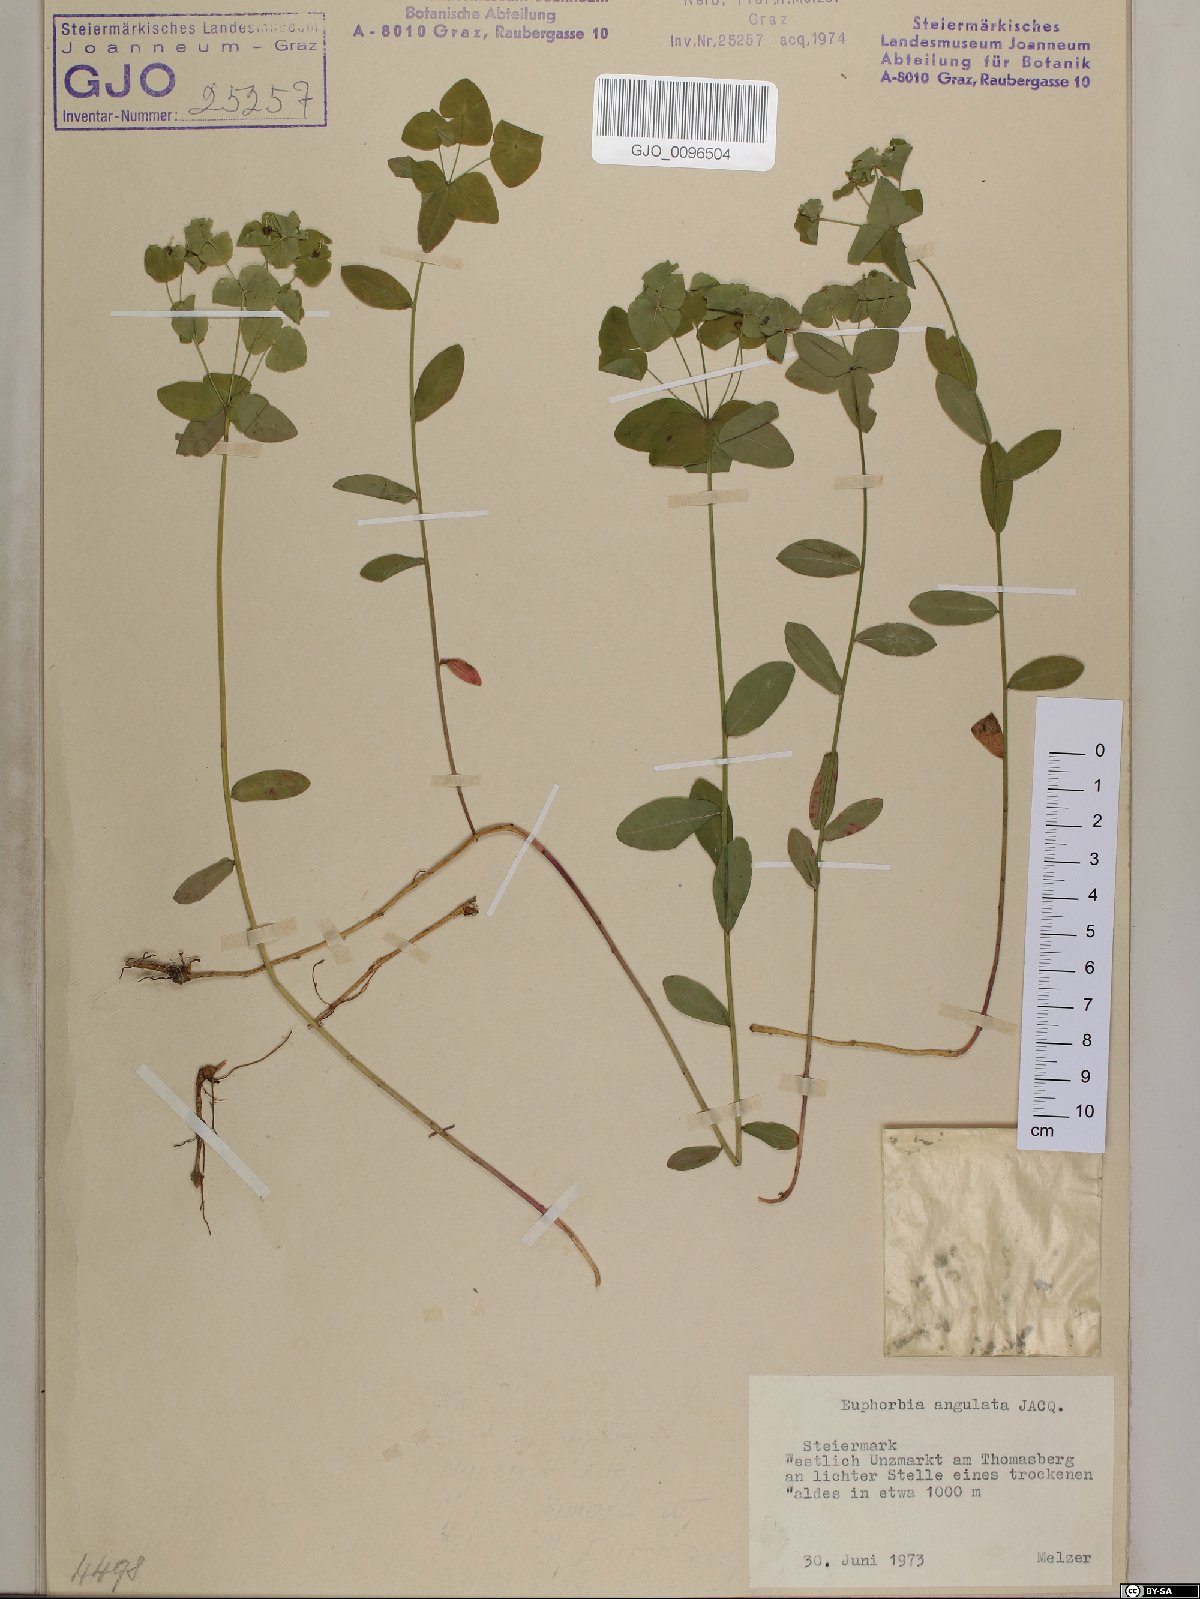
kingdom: Plantae
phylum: Tracheophyta
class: Magnoliopsida
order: Malpighiales
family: Euphorbiaceae
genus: Euphorbia
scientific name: Euphorbia angulata
